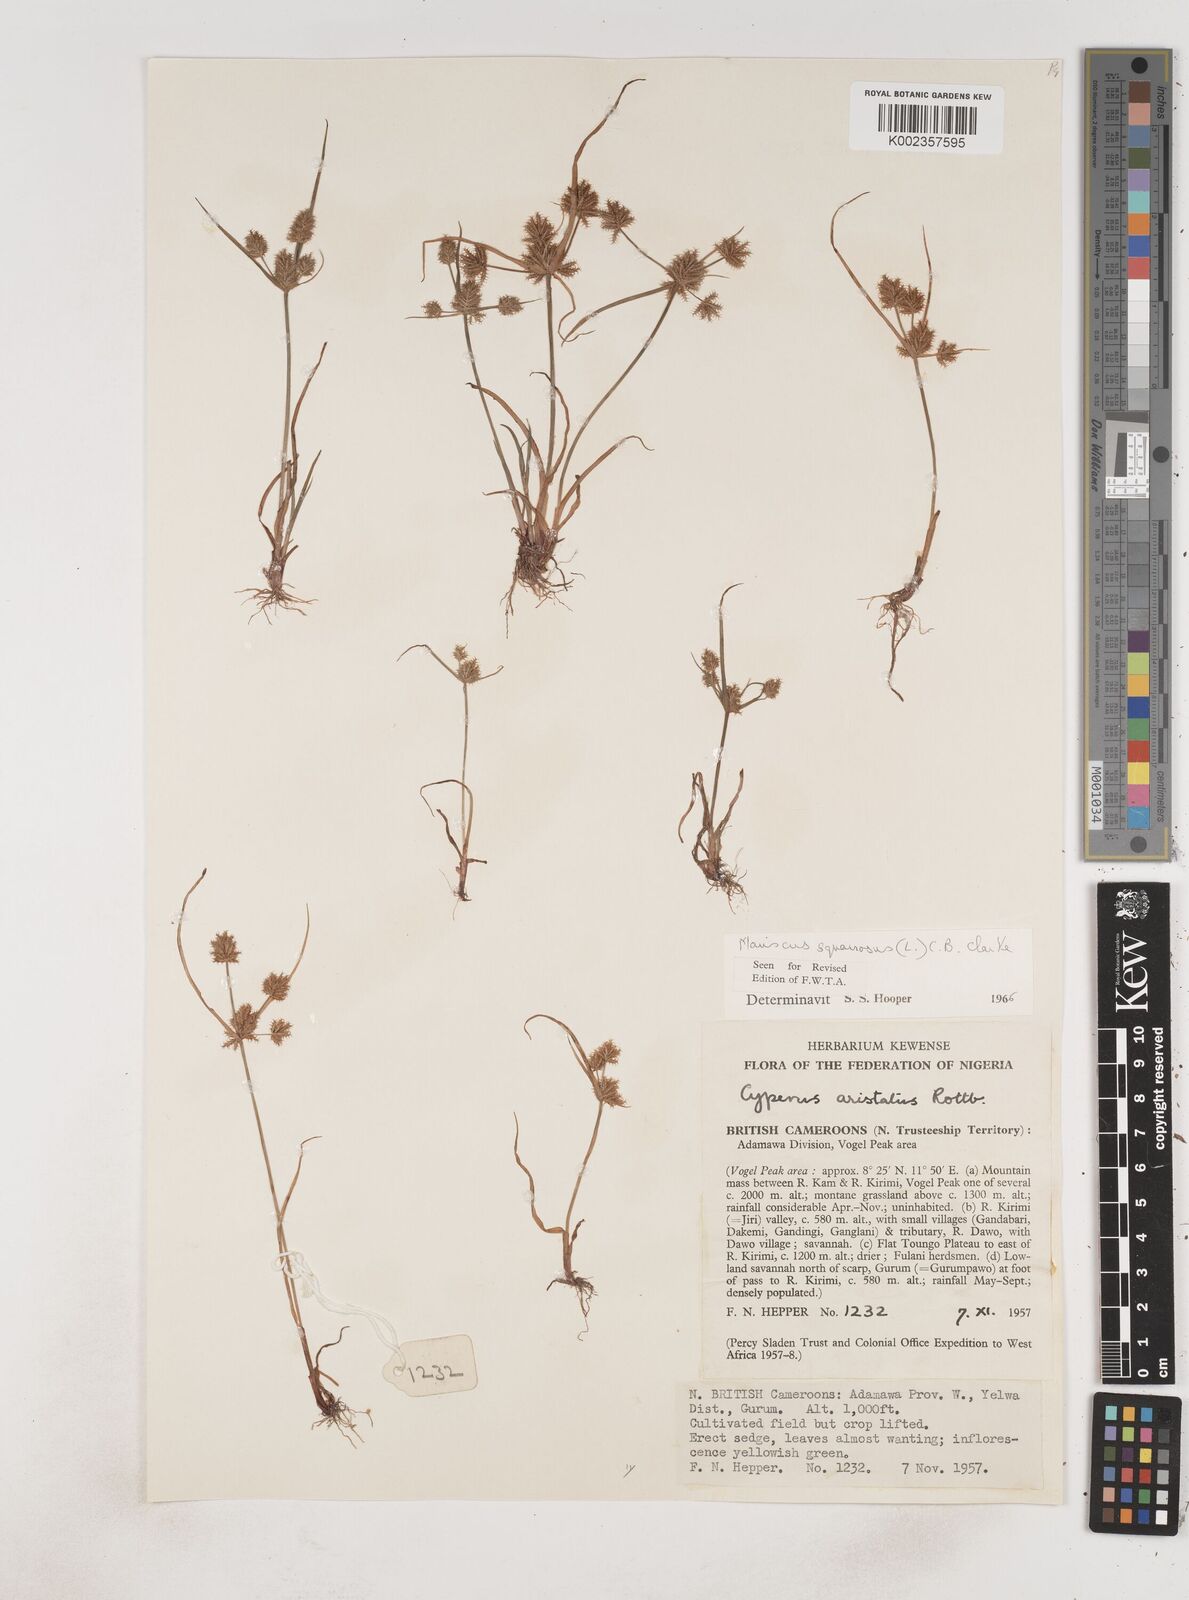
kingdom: Plantae
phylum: Tracheophyta
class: Liliopsida
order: Poales
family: Cyperaceae
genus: Cyperus
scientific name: Cyperus squarrosus
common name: Awned cyperus
